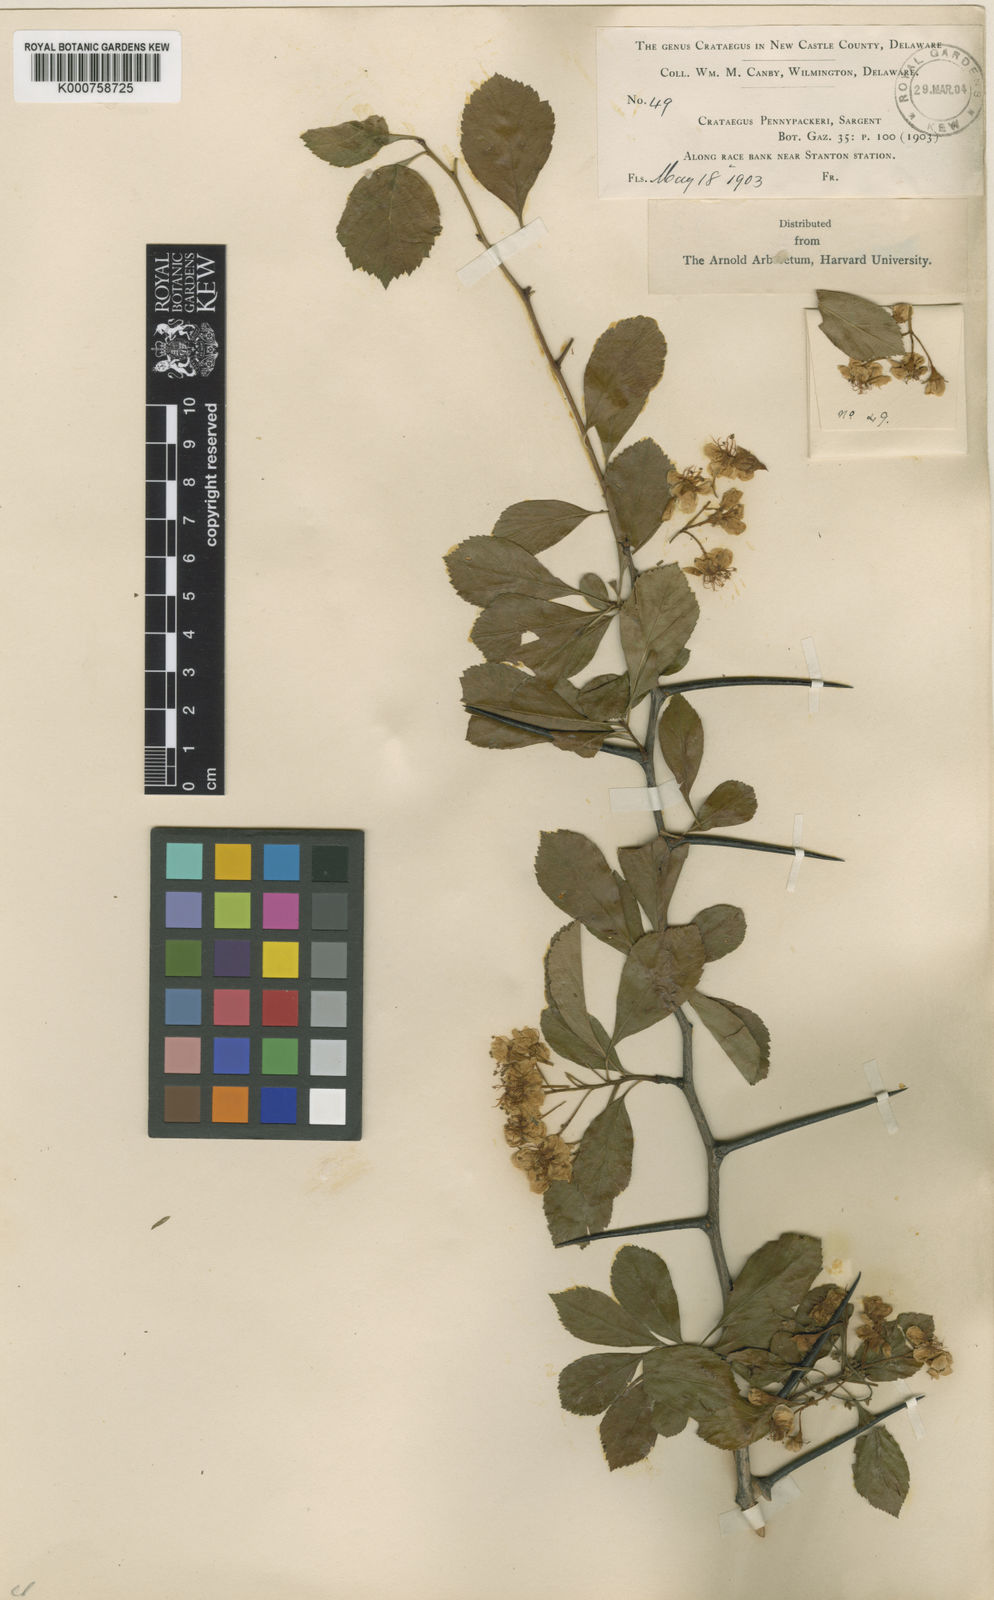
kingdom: Plantae
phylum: Tracheophyta
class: Magnoliopsida
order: Rosales
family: Rosaceae
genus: Crataegus
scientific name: Crataegus crus-galli
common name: Cockspurthorn
